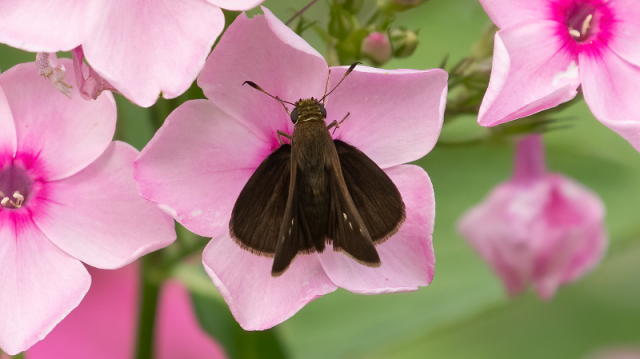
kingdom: Animalia
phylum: Arthropoda
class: Insecta
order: Lepidoptera
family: Hesperiidae
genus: Euphyes
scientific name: Euphyes vestris
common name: Dun Skipper
